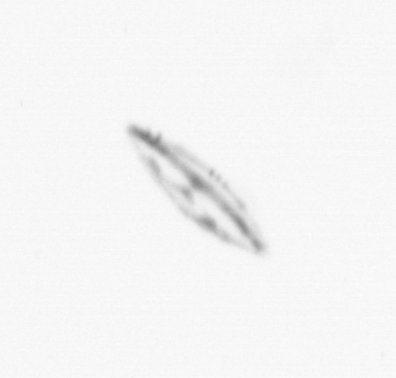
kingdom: Chromista
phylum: Ochrophyta
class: Bacillariophyceae
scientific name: Bacillariophyceae
